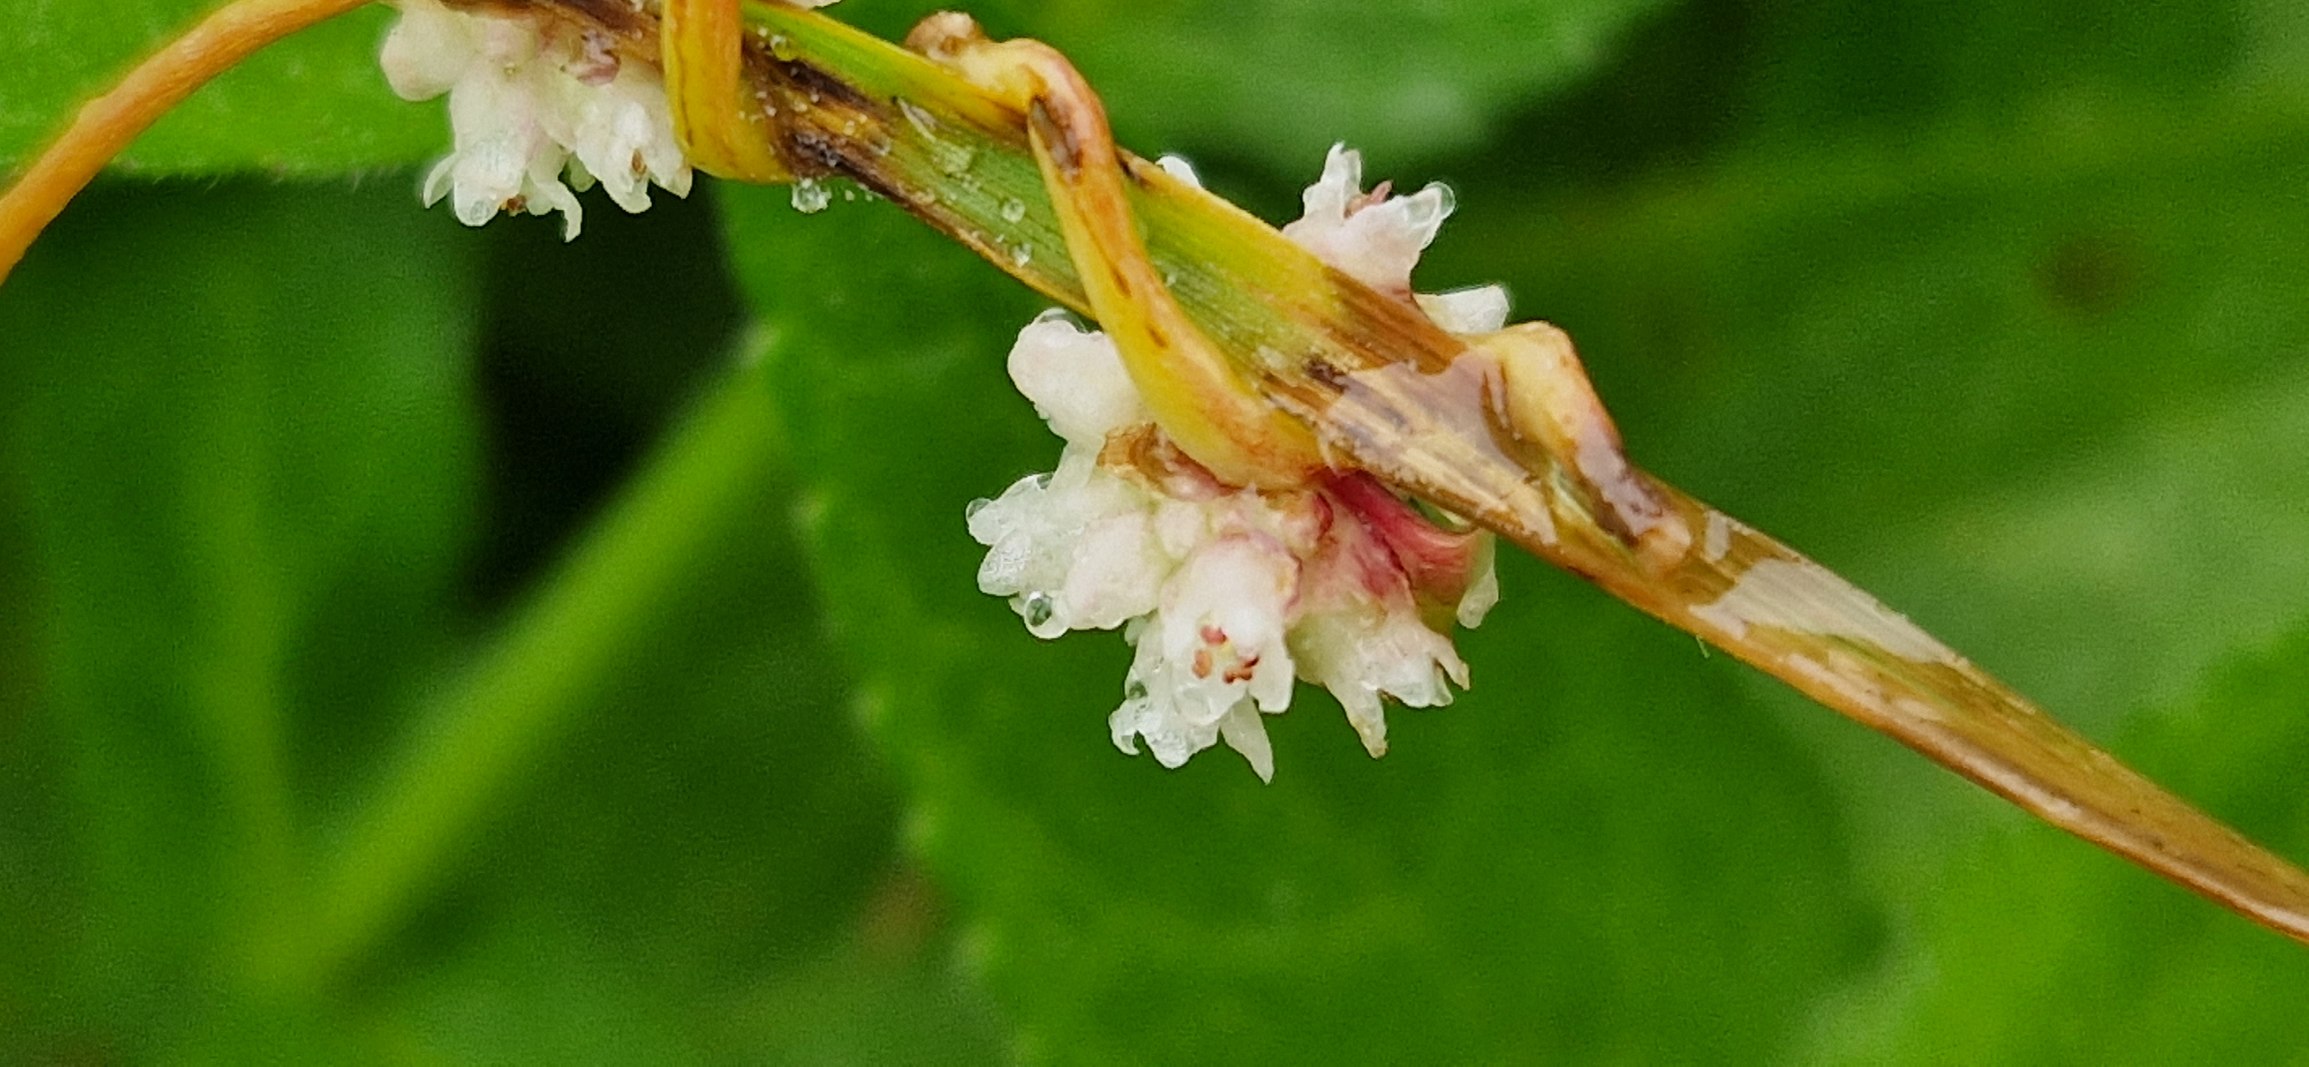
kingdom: Plantae
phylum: Tracheophyta
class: Magnoliopsida
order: Solanales
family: Convolvulaceae
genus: Cuscuta
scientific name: Cuscuta europaea
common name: Nælde-silke
